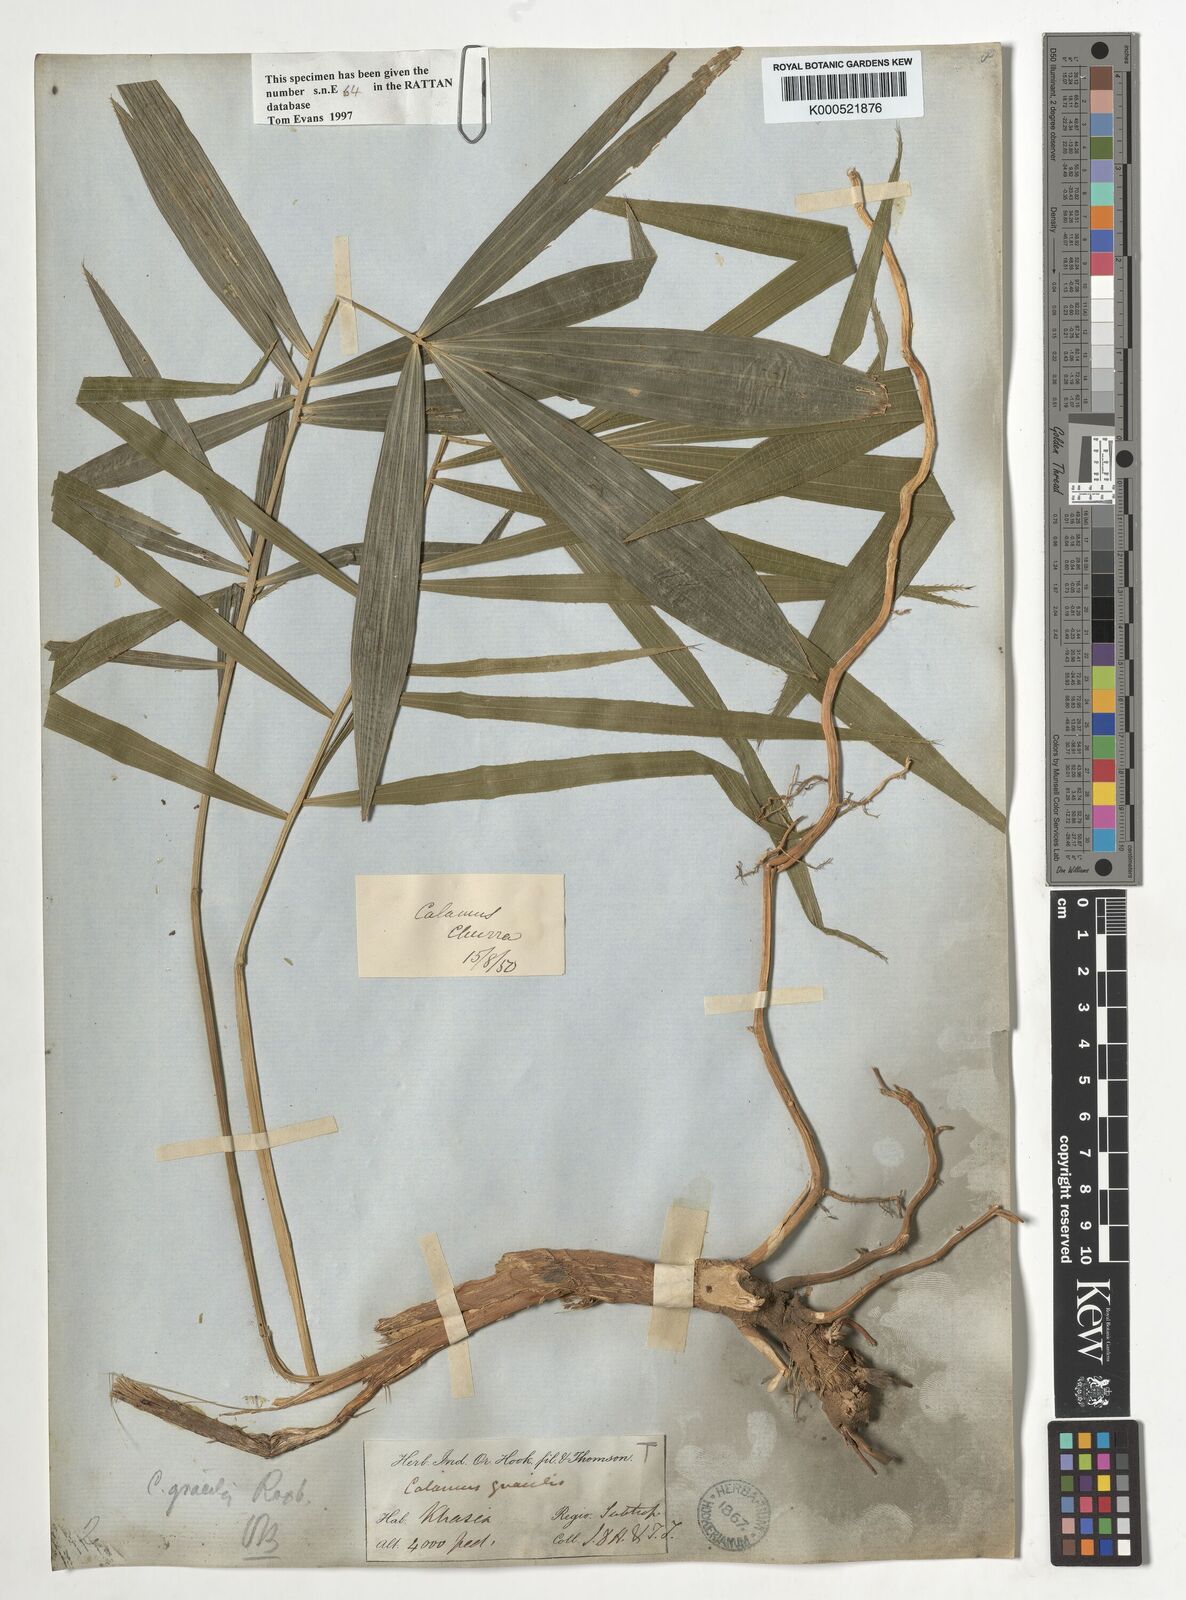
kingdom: Plantae
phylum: Tracheophyta
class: Liliopsida
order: Arecales
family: Arecaceae
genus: Calamus
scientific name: Calamus gracilis
